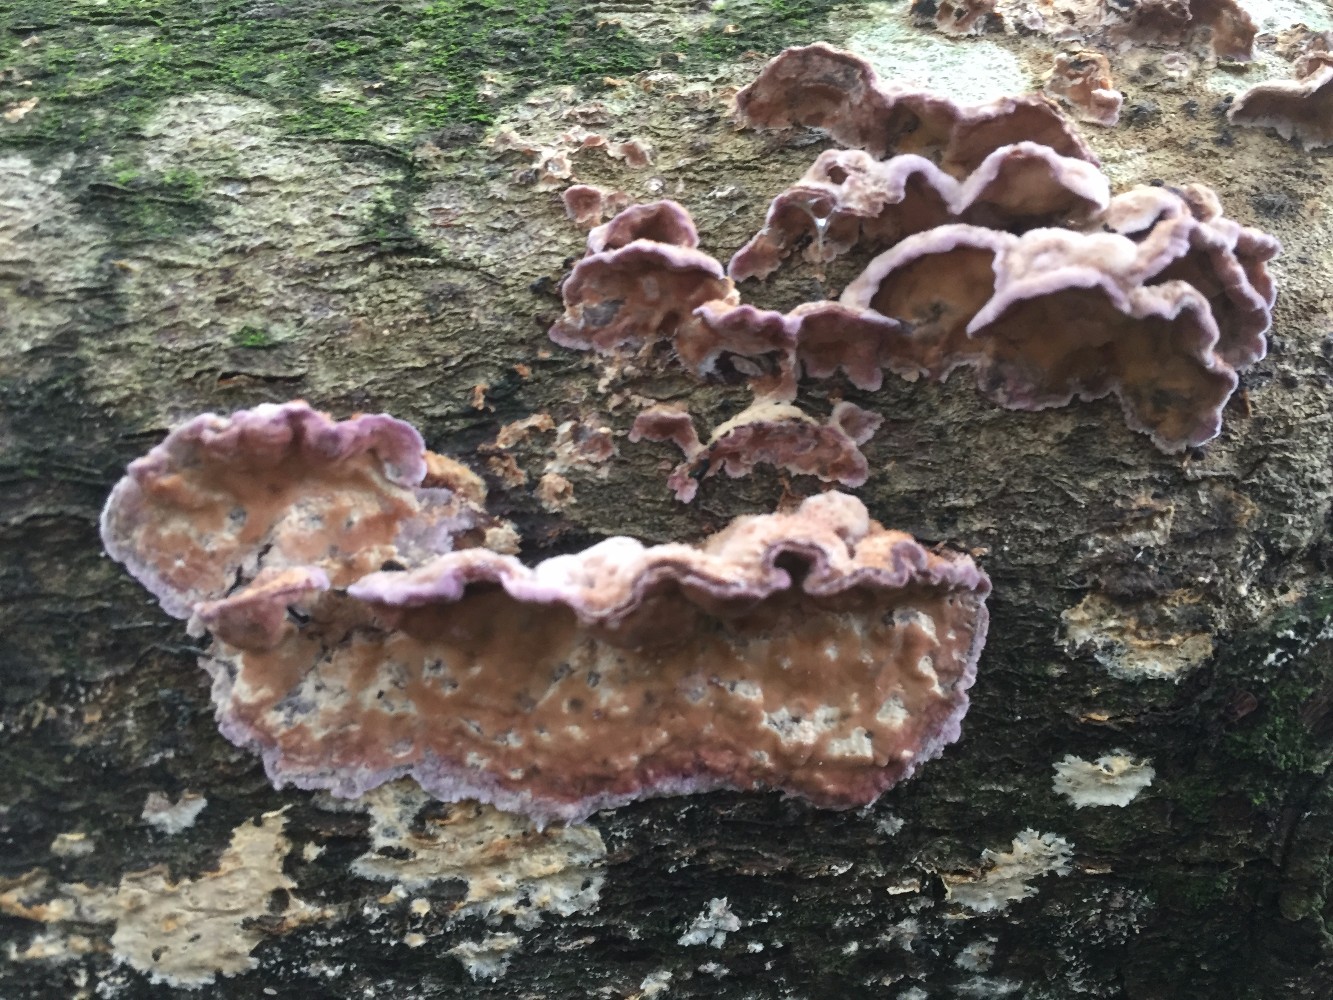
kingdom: Fungi
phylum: Basidiomycota
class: Agaricomycetes
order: Agaricales
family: Cyphellaceae
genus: Chondrostereum
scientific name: Chondrostereum purpureum
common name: purpurlædersvamp
